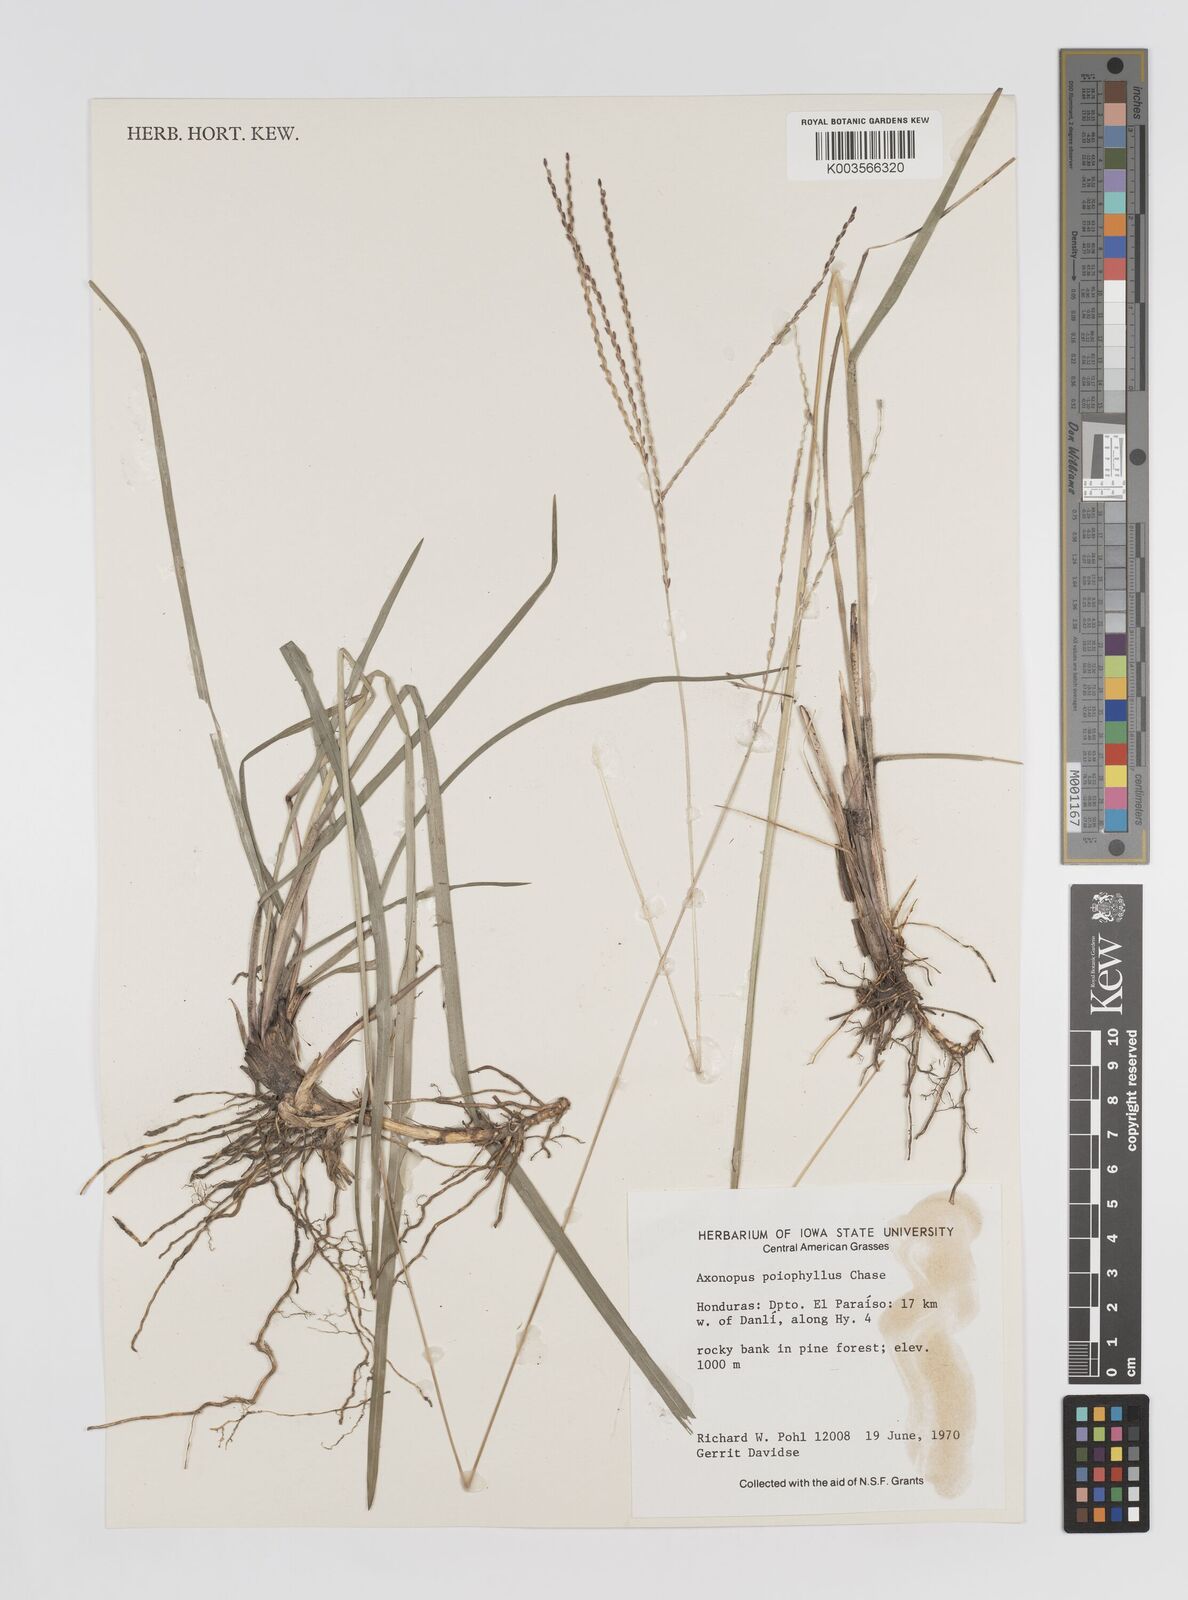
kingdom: Plantae
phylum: Tracheophyta
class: Liliopsida
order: Poales
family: Poaceae
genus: Axonopus
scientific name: Axonopus
